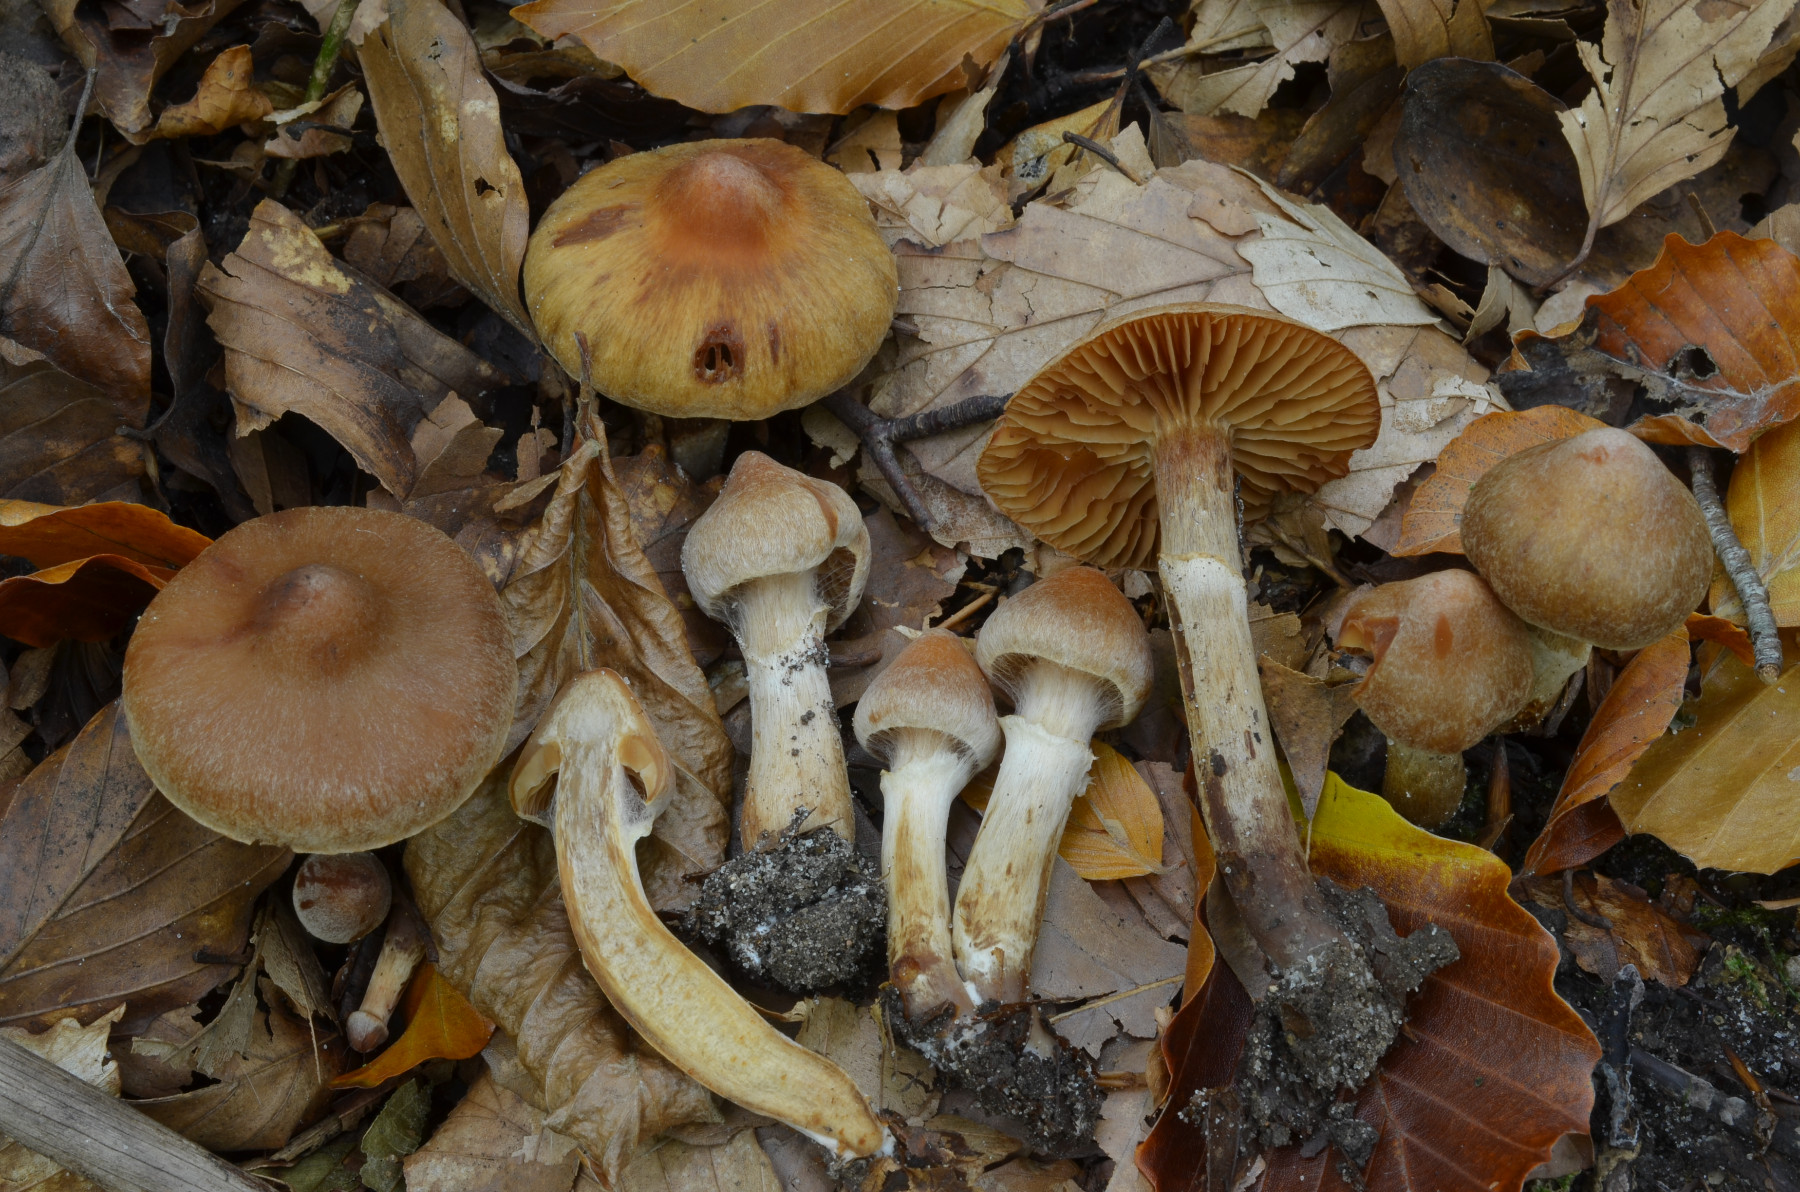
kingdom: Fungi
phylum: Basidiomycota
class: Agaricomycetes
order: Agaricales
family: Cortinariaceae
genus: Cortinarius
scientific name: Cortinarius hinnuleus
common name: ildelugtende slørhat
